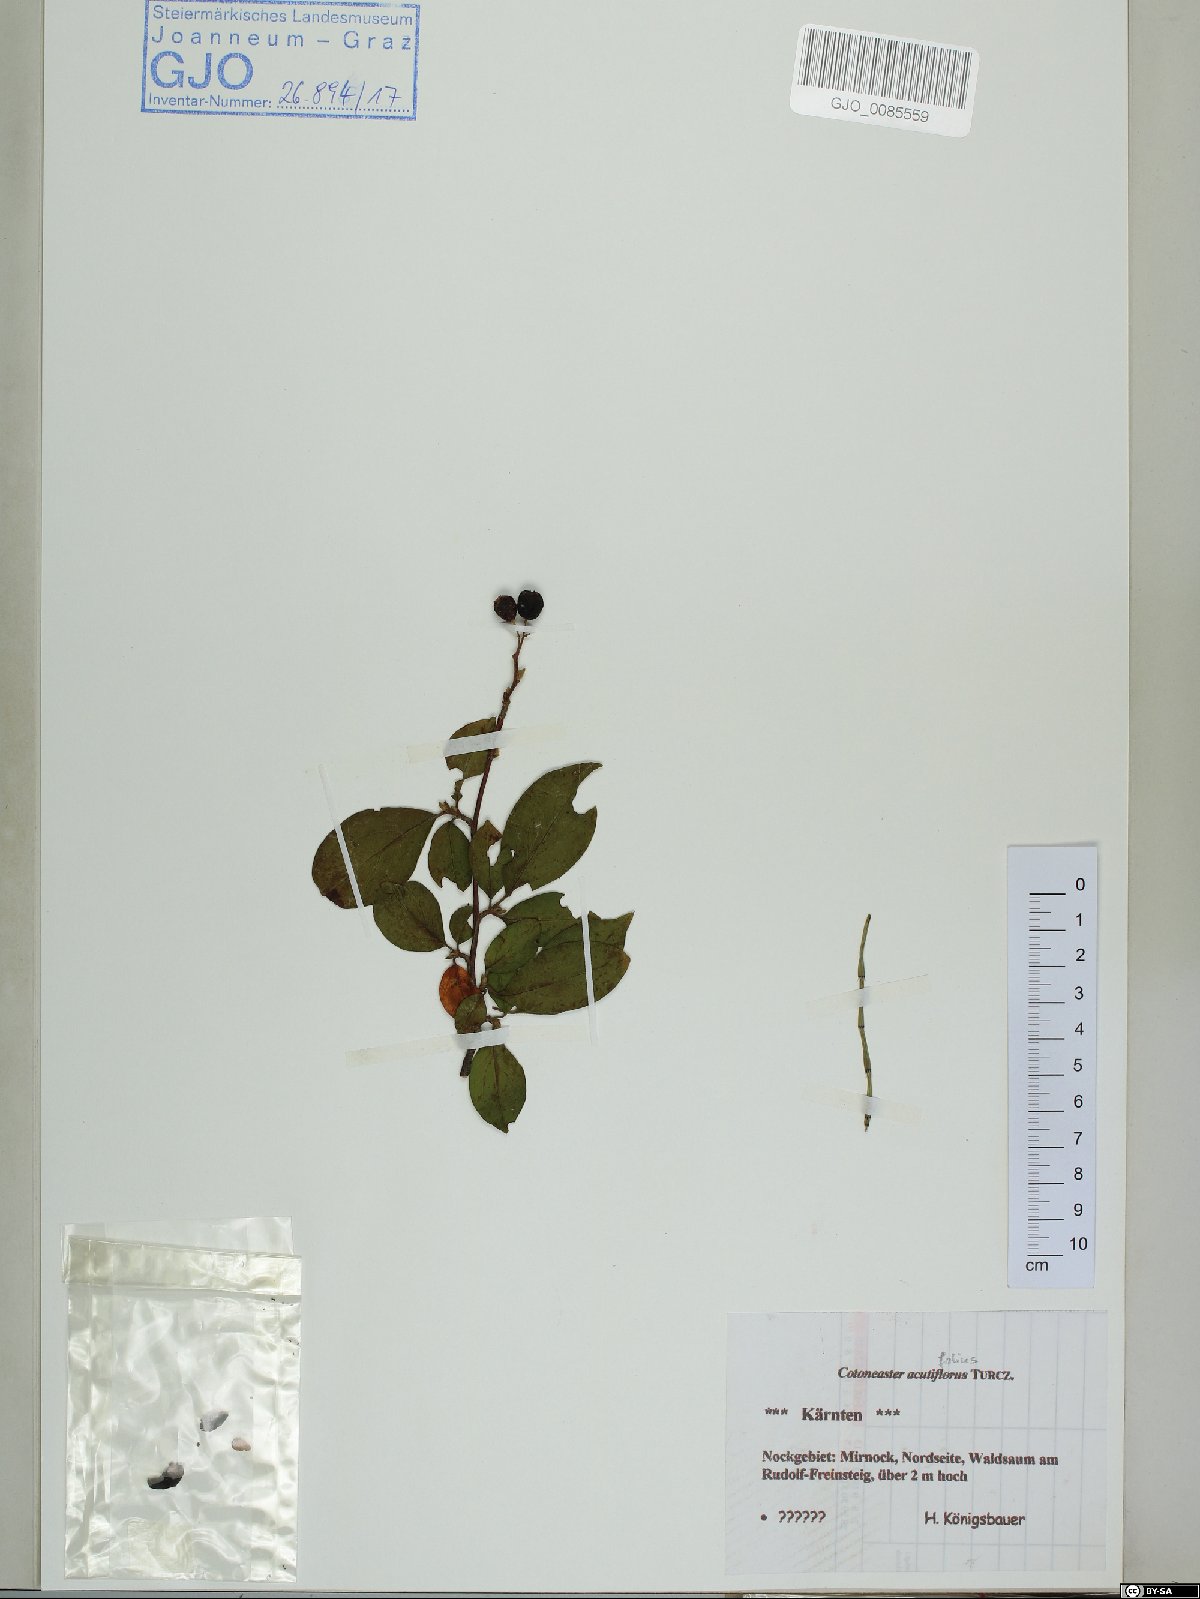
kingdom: Plantae
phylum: Tracheophyta
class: Magnoliopsida
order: Rosales
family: Rosaceae
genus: Cotoneaster
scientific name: Cotoneaster acutifolius
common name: Peking cotoneaster
